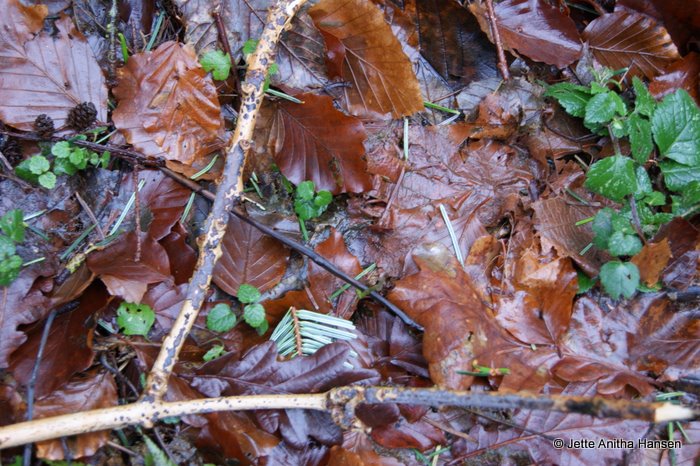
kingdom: Fungi
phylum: Basidiomycota
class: Agaricomycetes
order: Russulales
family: Peniophoraceae
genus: Peniophora
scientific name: Peniophora limitata
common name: mørkrandet voksskind
